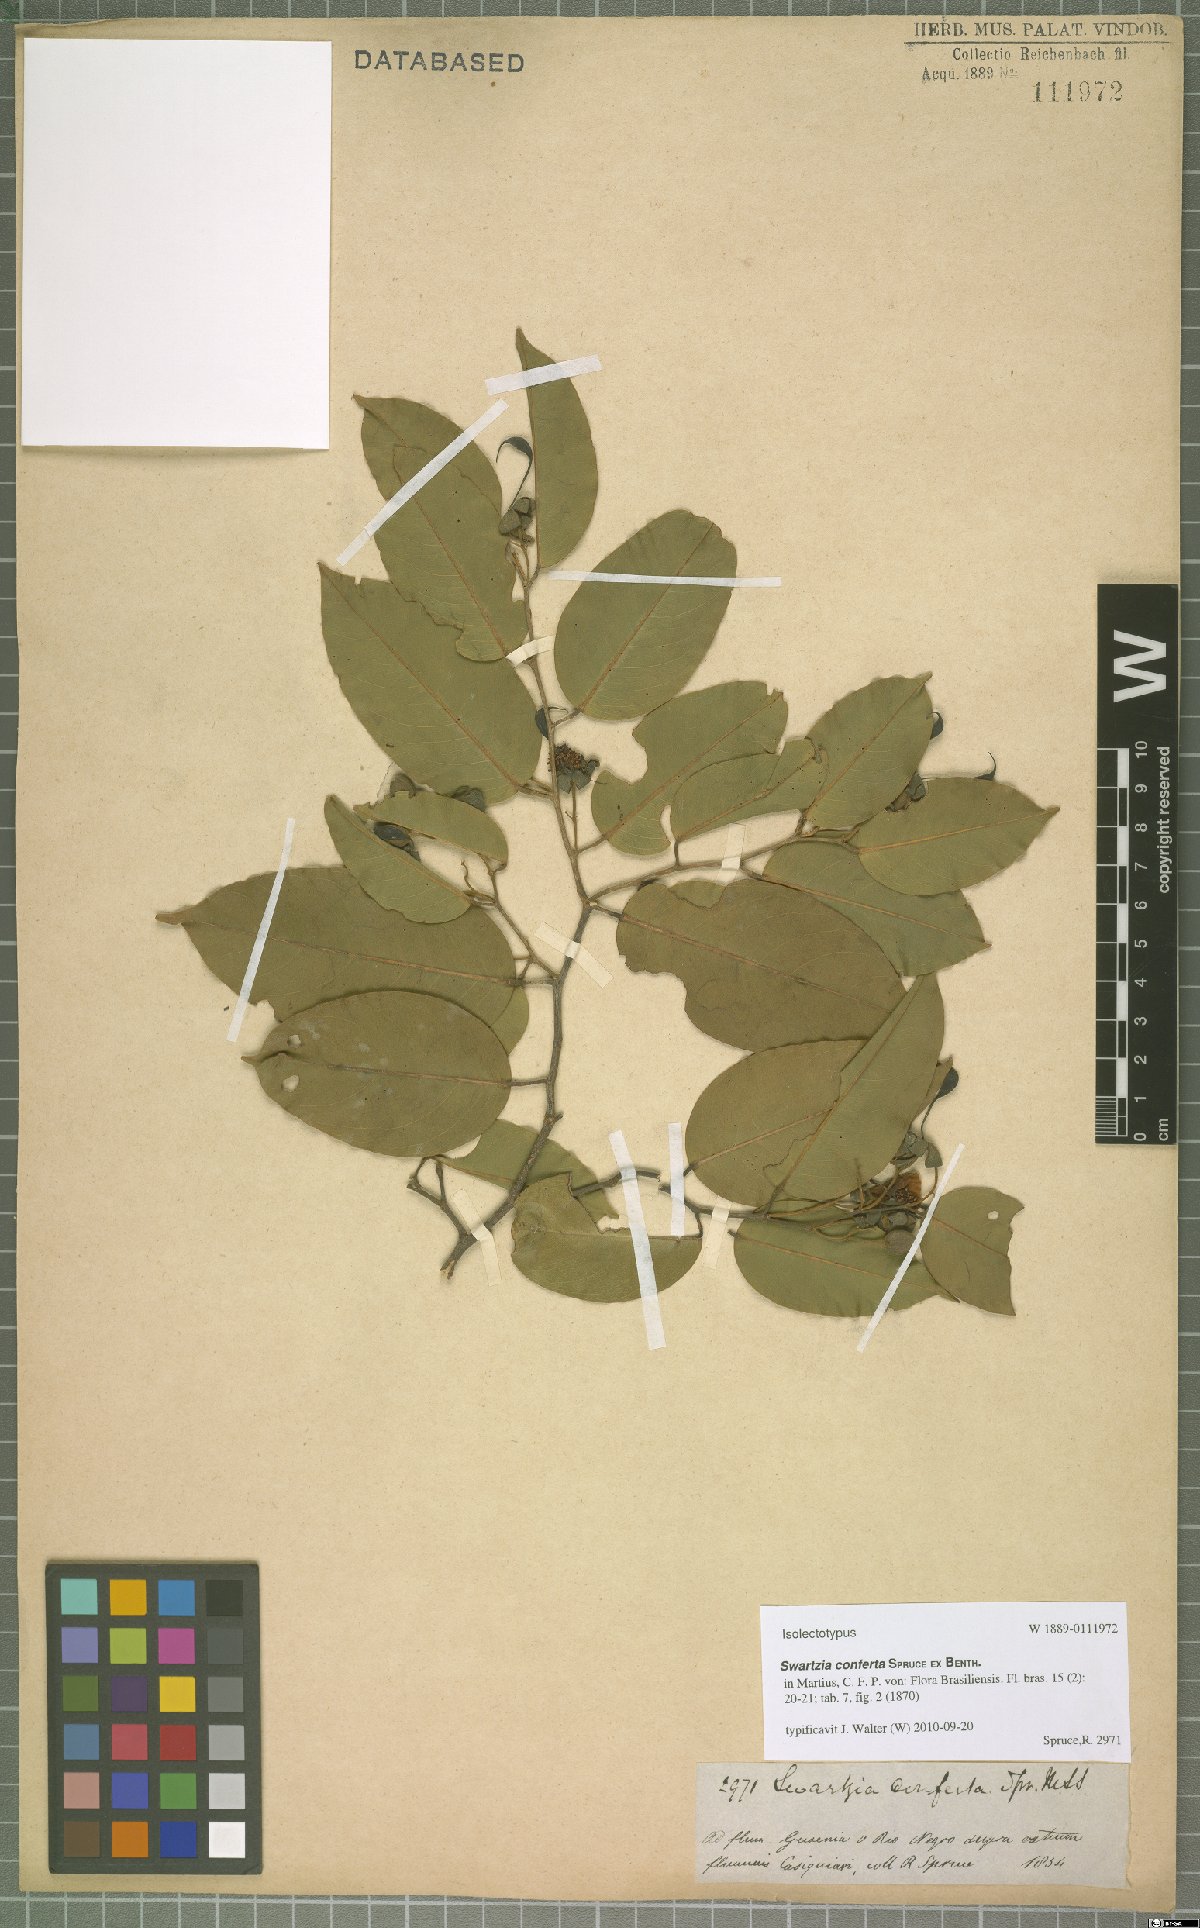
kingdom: Plantae
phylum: Tracheophyta
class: Magnoliopsida
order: Fabales
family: Fabaceae
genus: Swartzia
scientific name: Swartzia conferta
